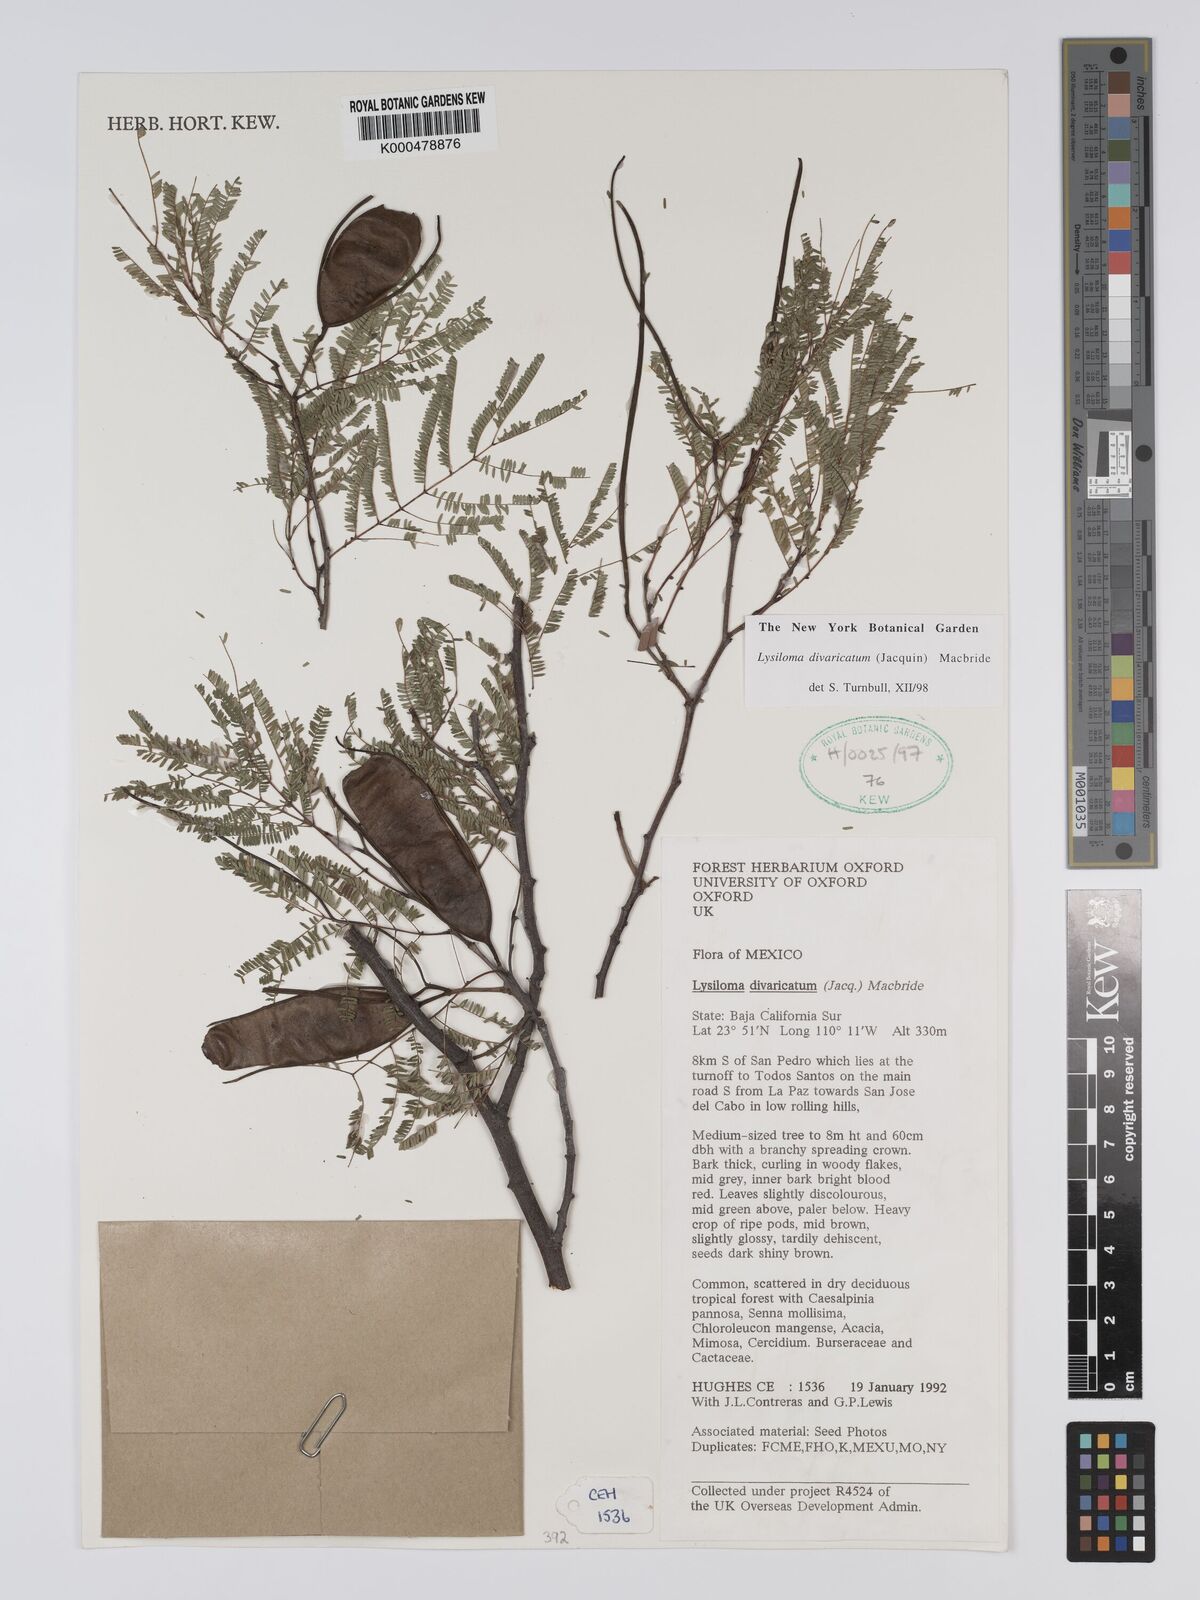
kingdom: Plantae
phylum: Tracheophyta
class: Magnoliopsida
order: Fabales
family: Fabaceae
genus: Lysiloma
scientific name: Lysiloma divaricatum
